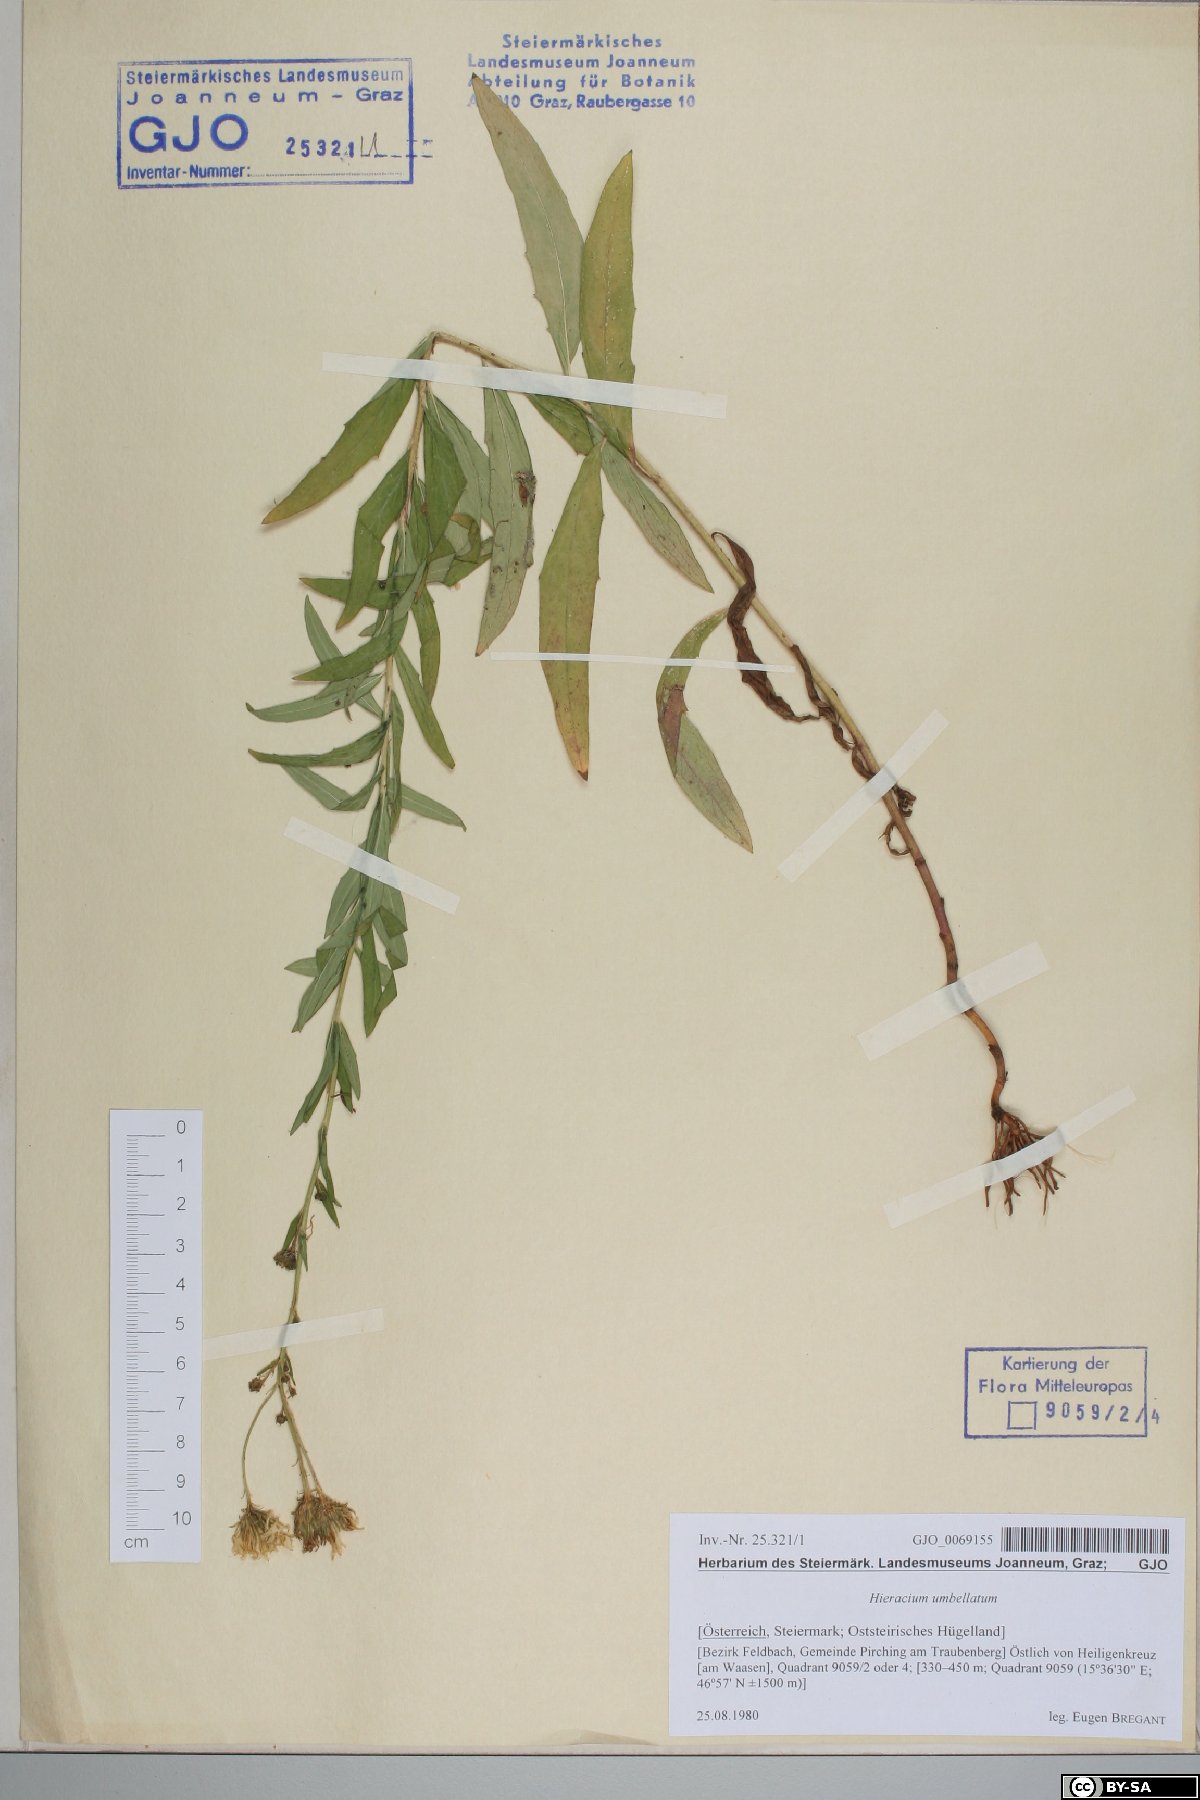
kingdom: Plantae
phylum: Tracheophyta
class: Magnoliopsida
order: Asterales
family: Asteraceae
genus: Hieracium
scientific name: Hieracium umbellatum
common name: Northern hawkweed
